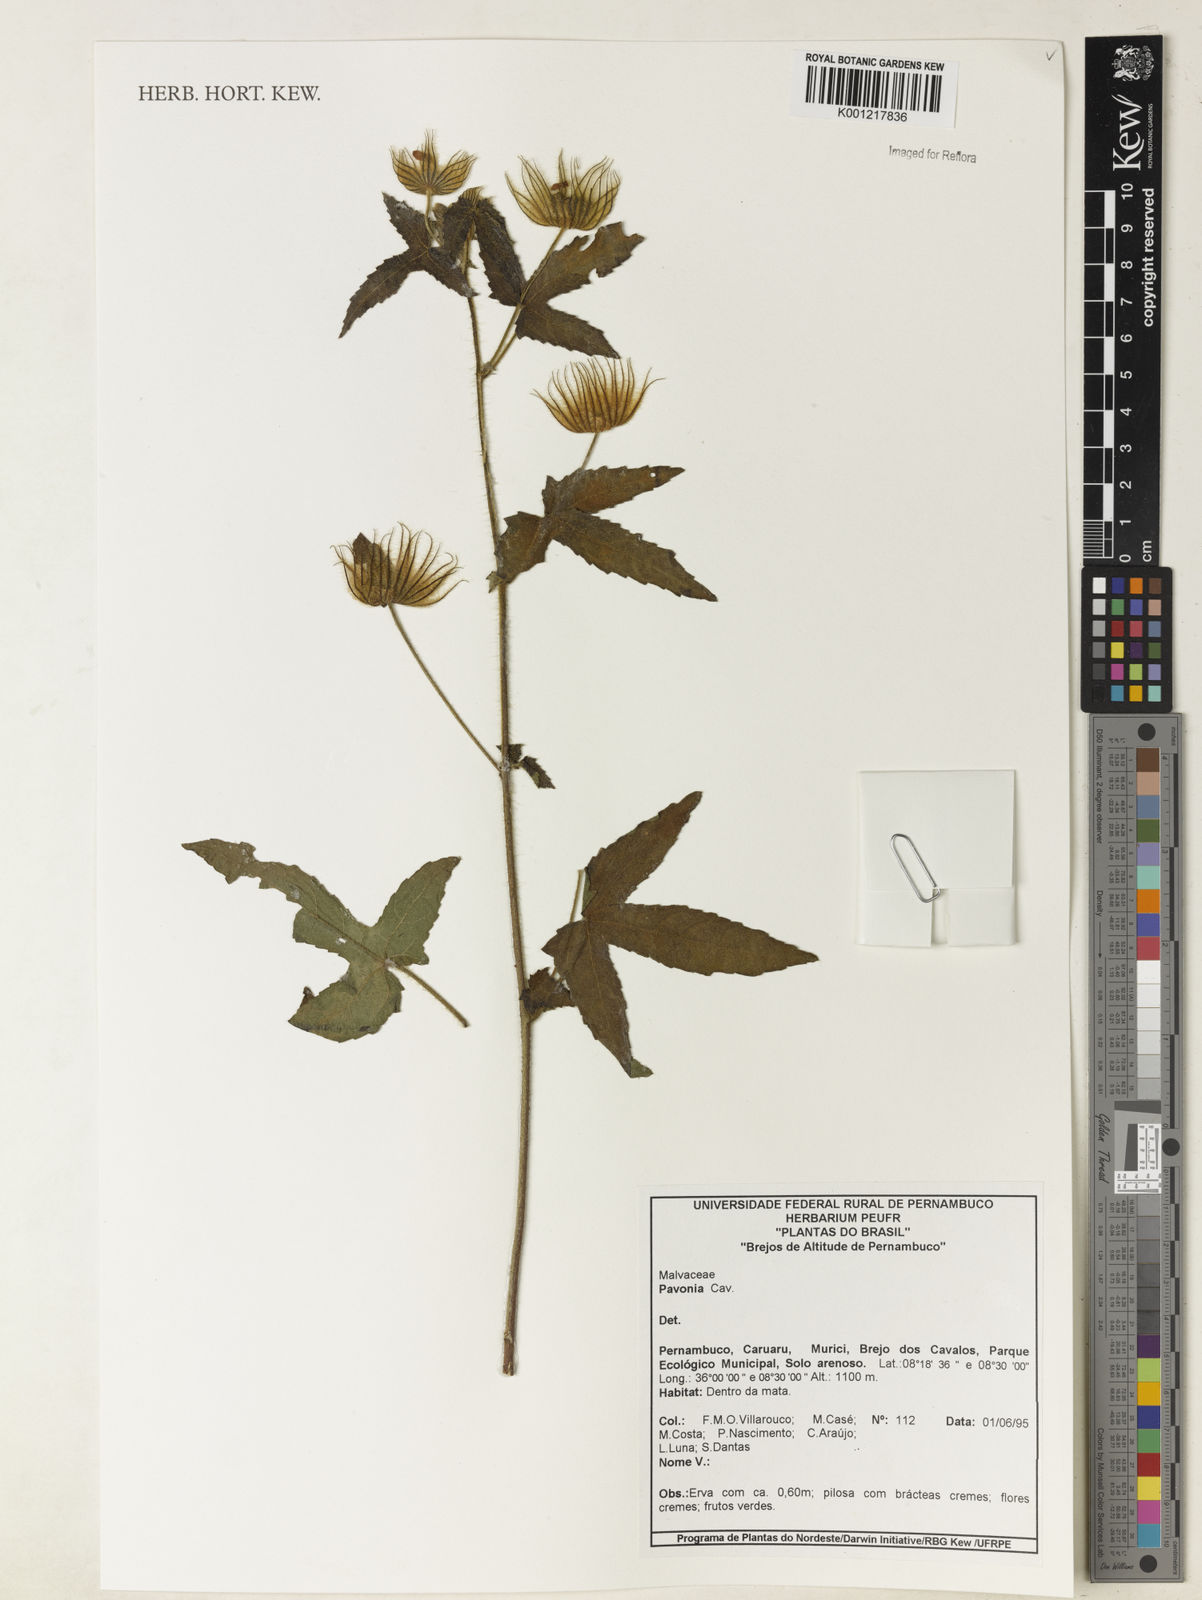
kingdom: Plantae
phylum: Tracheophyta
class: Magnoliopsida
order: Malvales
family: Malvaceae
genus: Pavonia
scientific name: Pavonia
